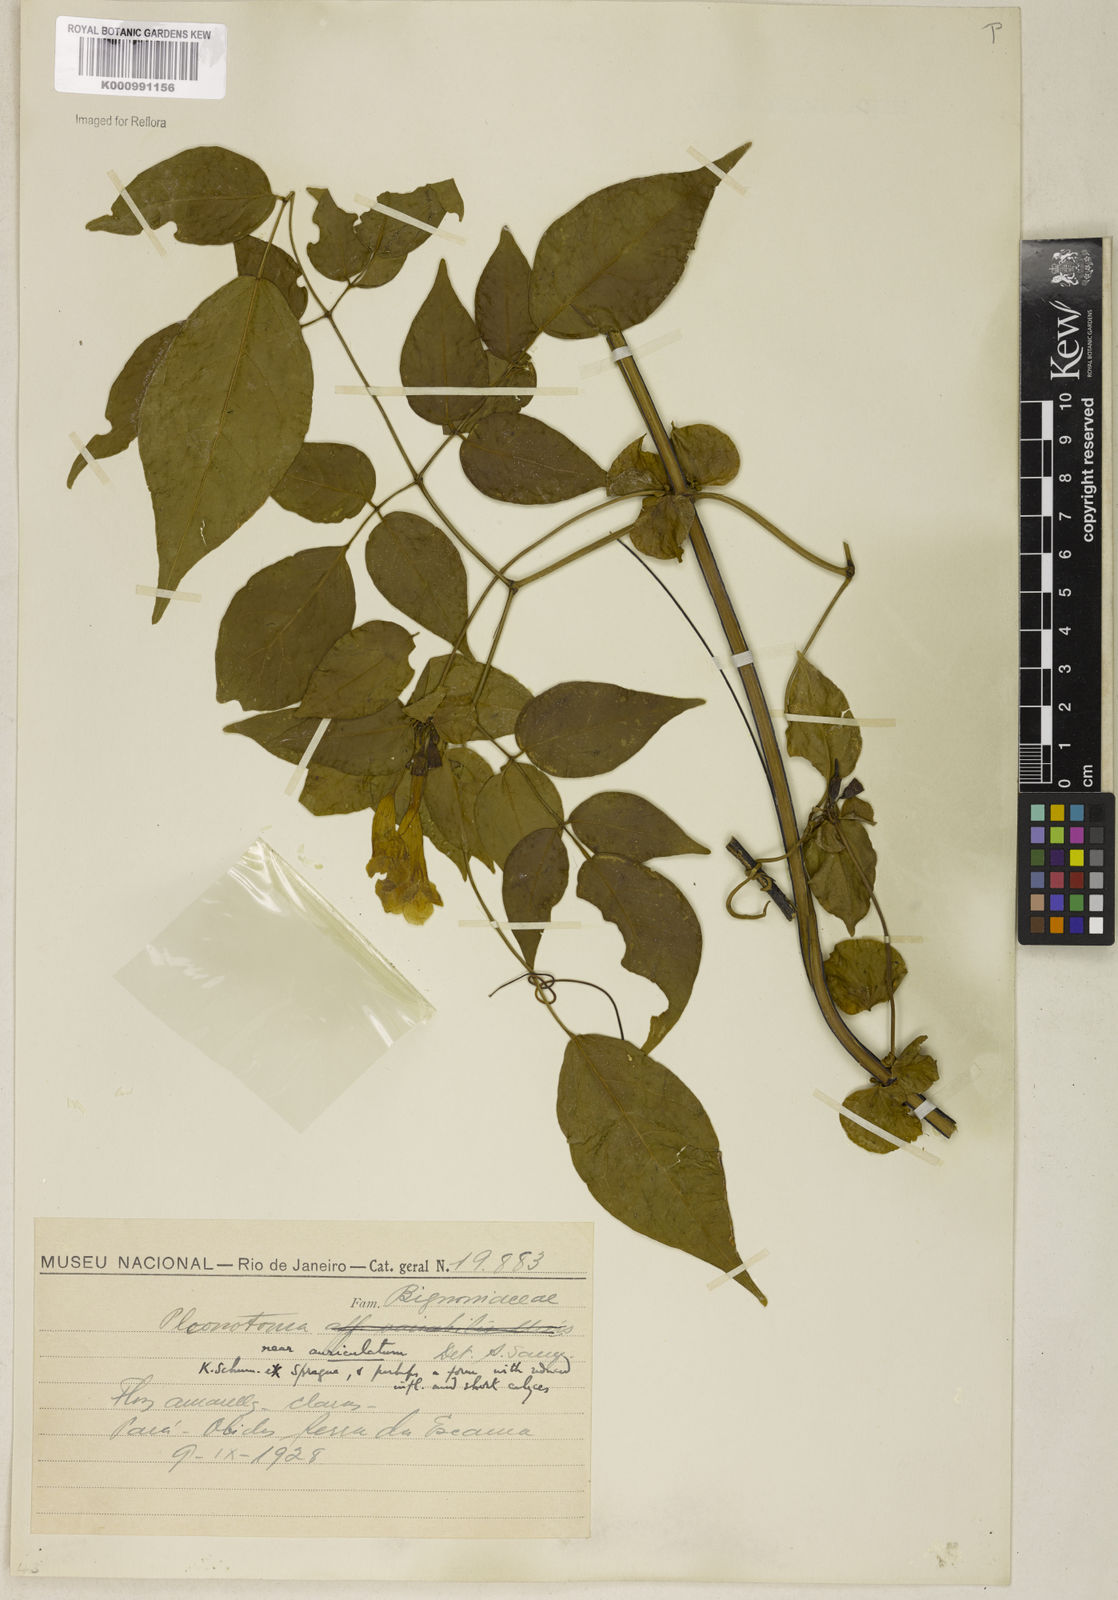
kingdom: Plantae
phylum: Tracheophyta
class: Magnoliopsida
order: Lamiales
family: Bignoniaceae
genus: Pleonotoma
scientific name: Pleonotoma jasminifolia
